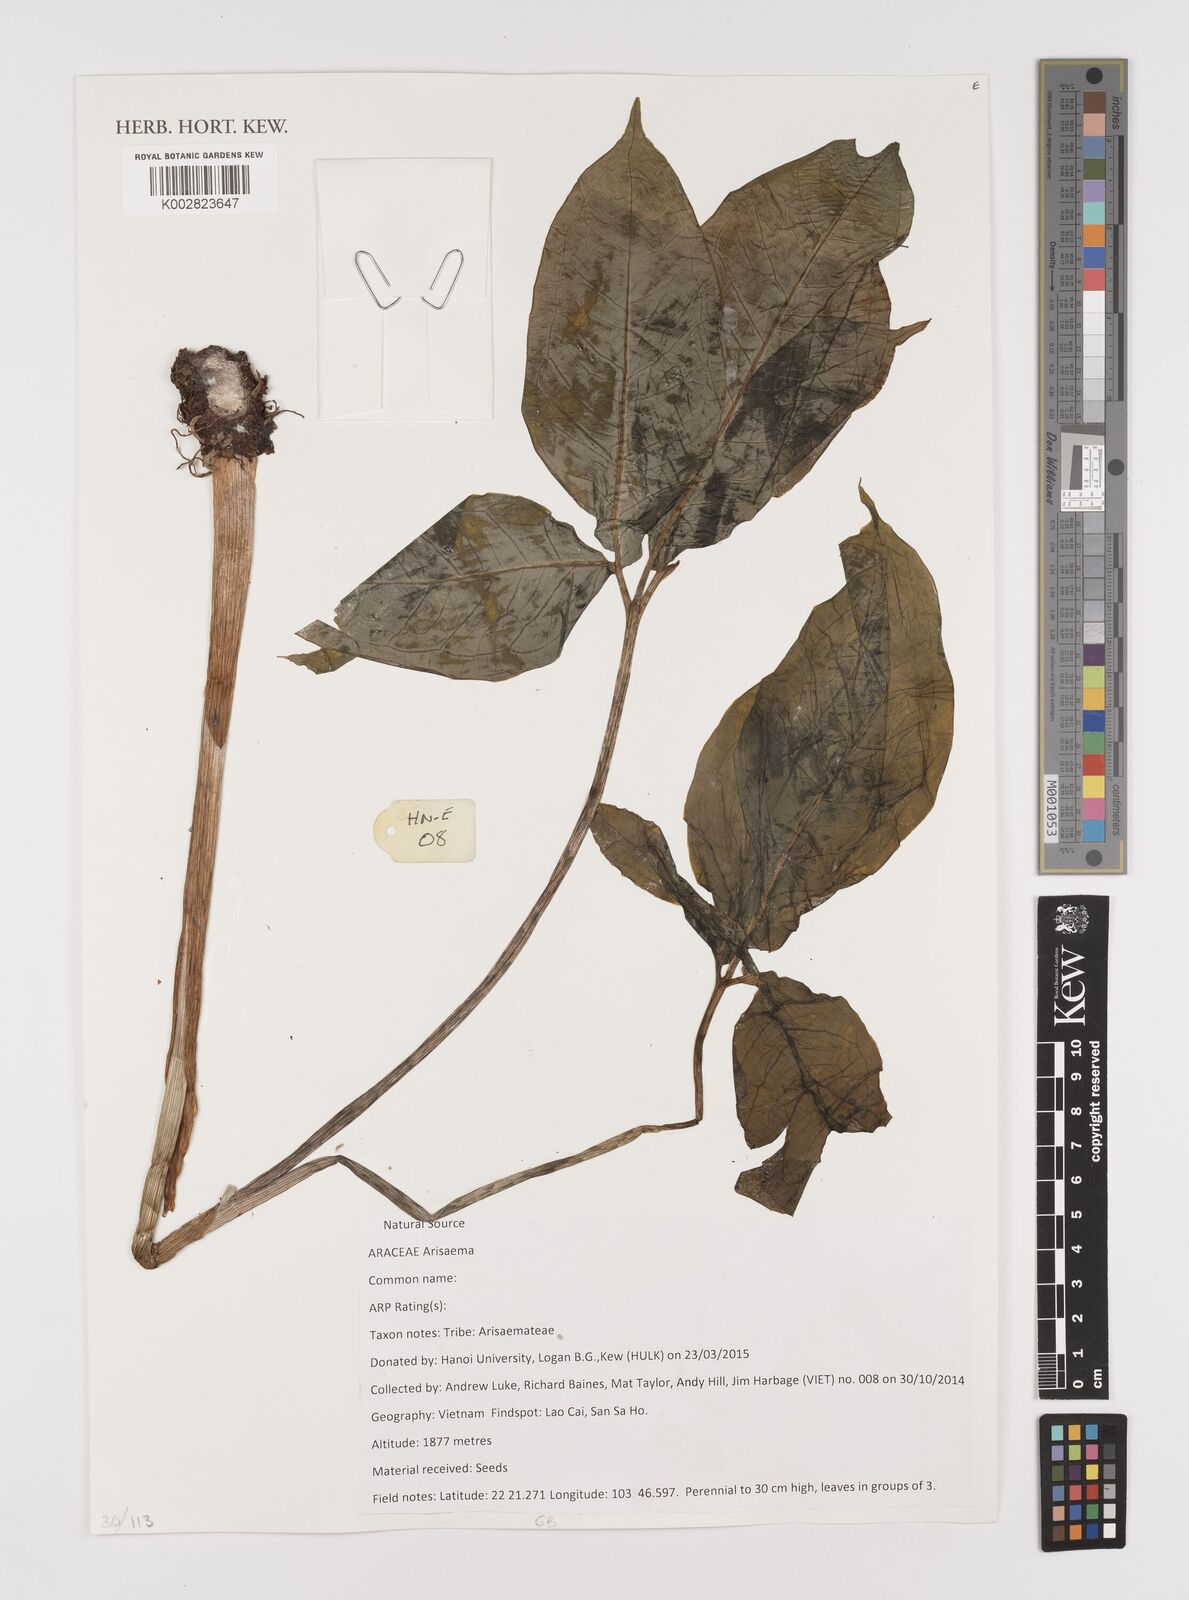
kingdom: Plantae
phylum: Tracheophyta
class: Liliopsida
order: Alismatales
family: Araceae
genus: Arisaema
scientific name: Arisaema
